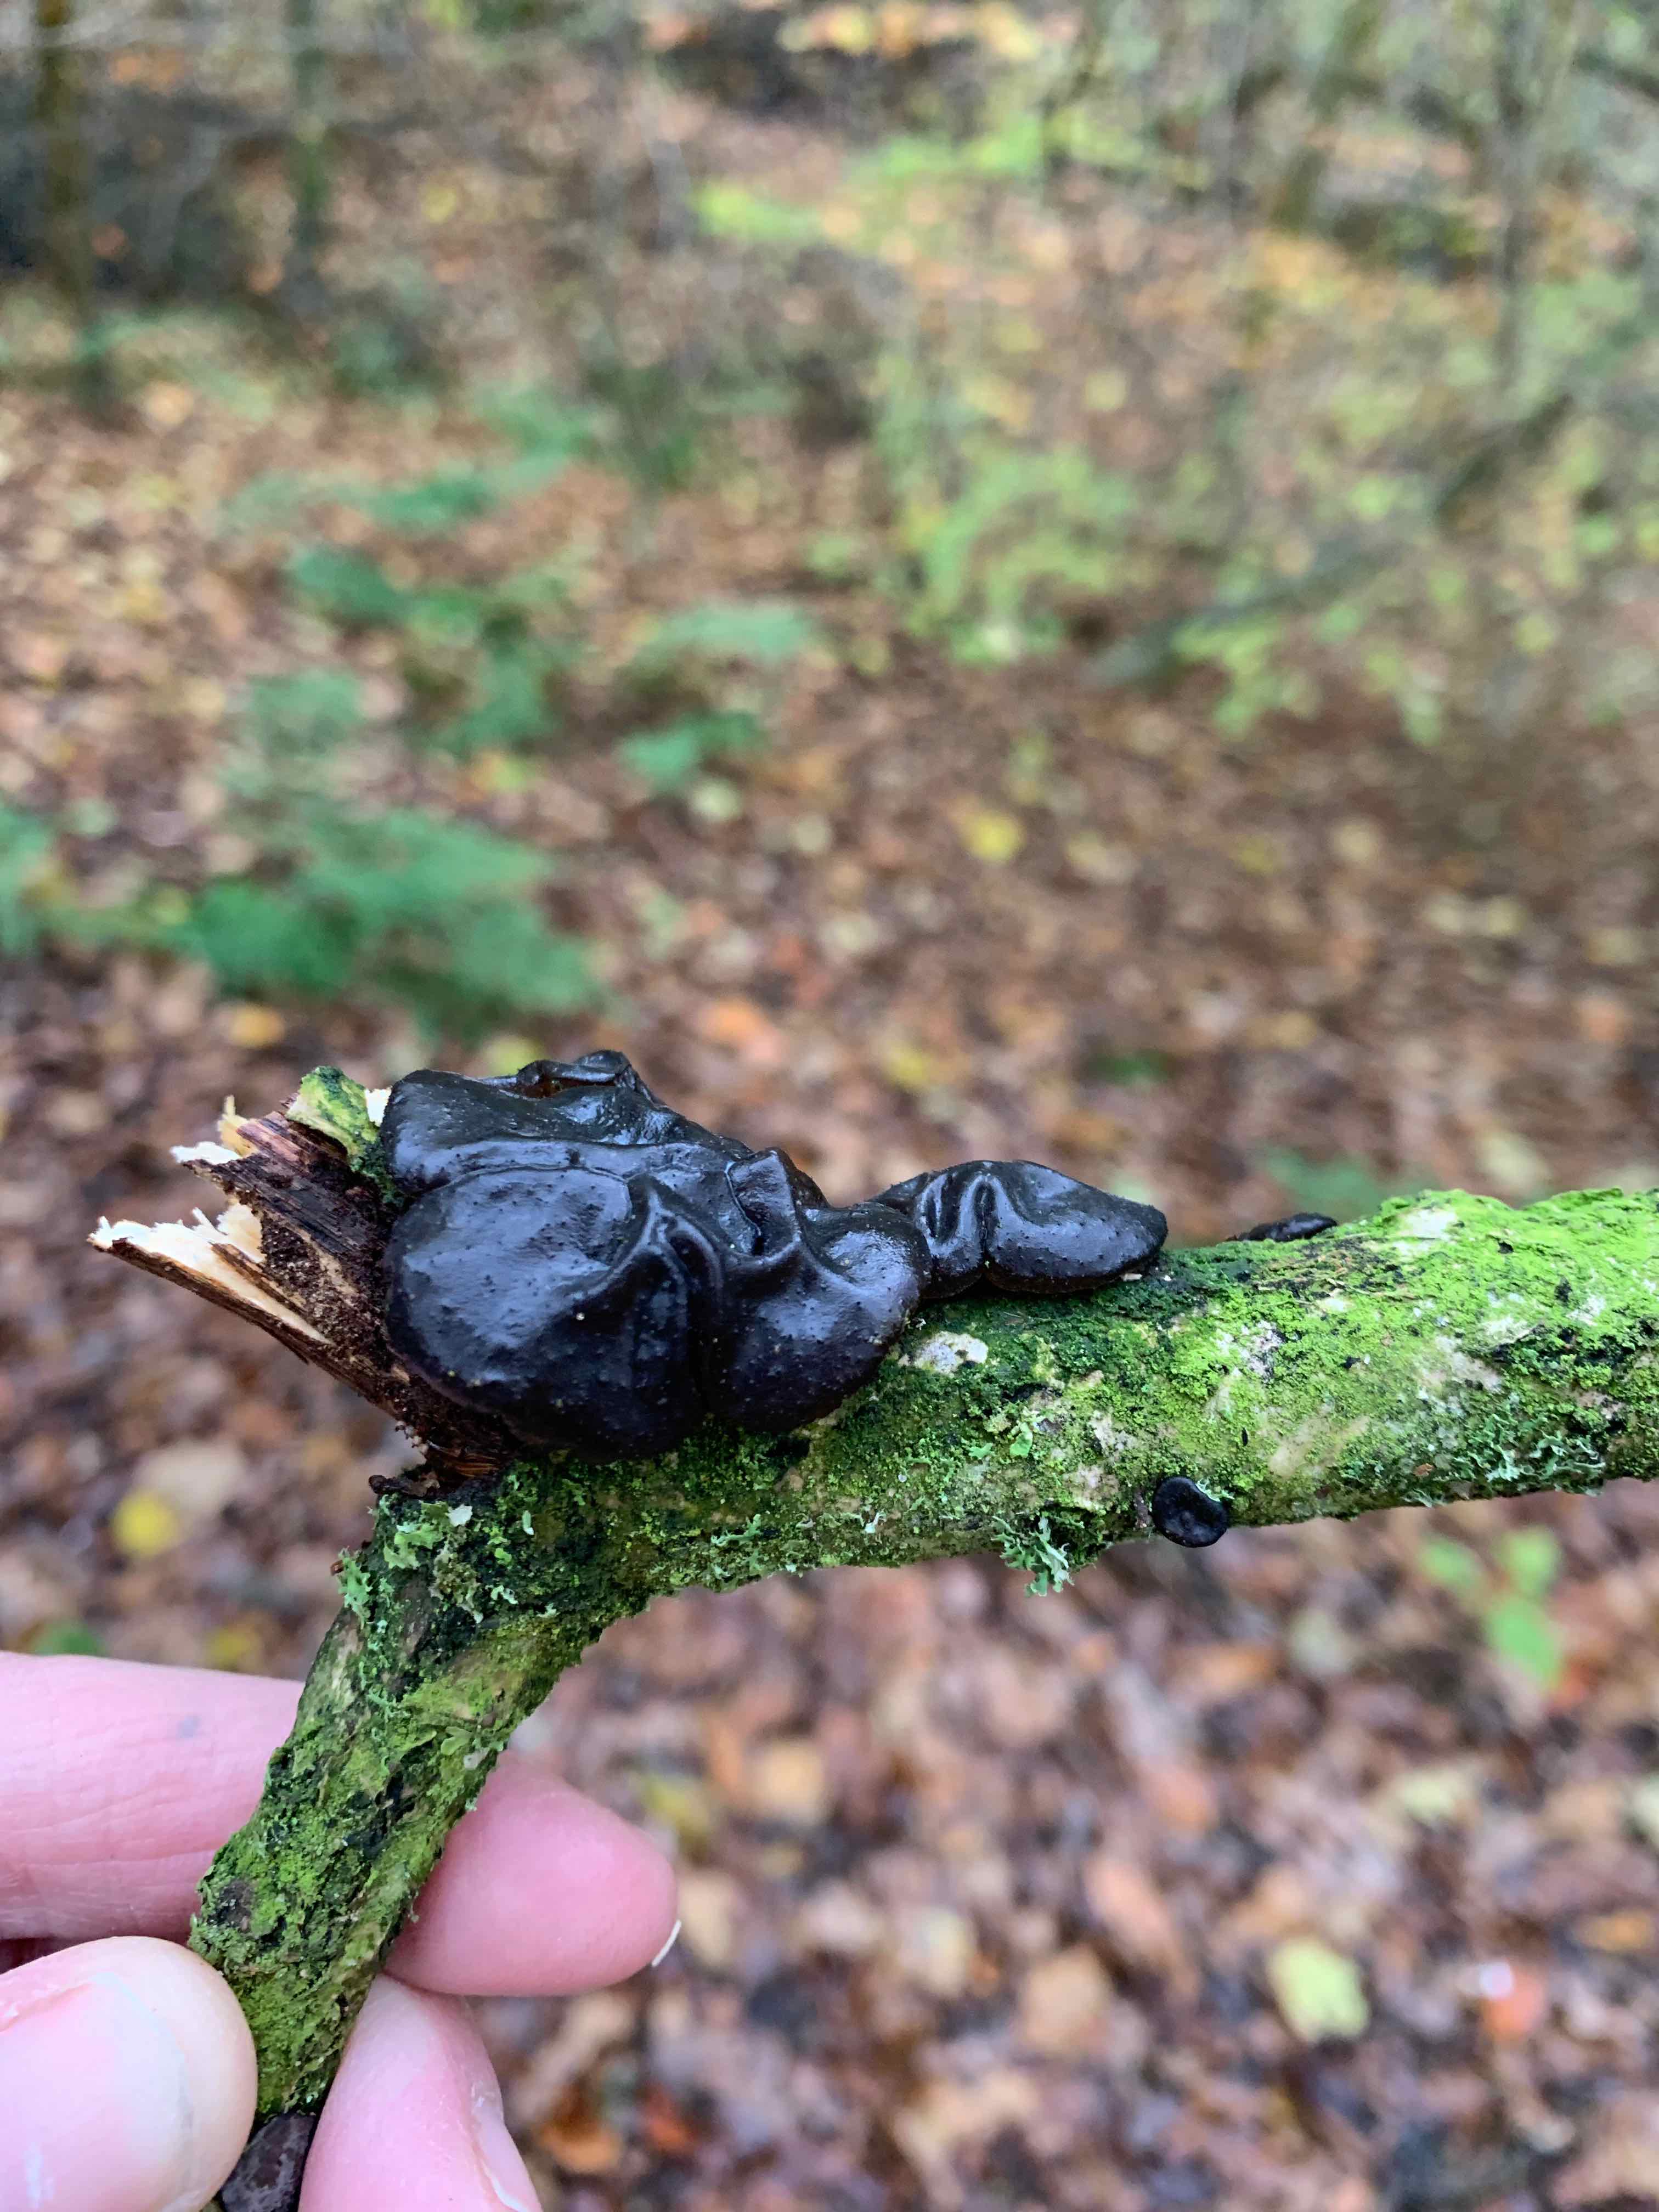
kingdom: Fungi
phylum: Basidiomycota
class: Agaricomycetes
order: Auriculariales
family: Auriculariaceae
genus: Exidia
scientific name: Exidia glandulosa
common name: ege-bævretop
